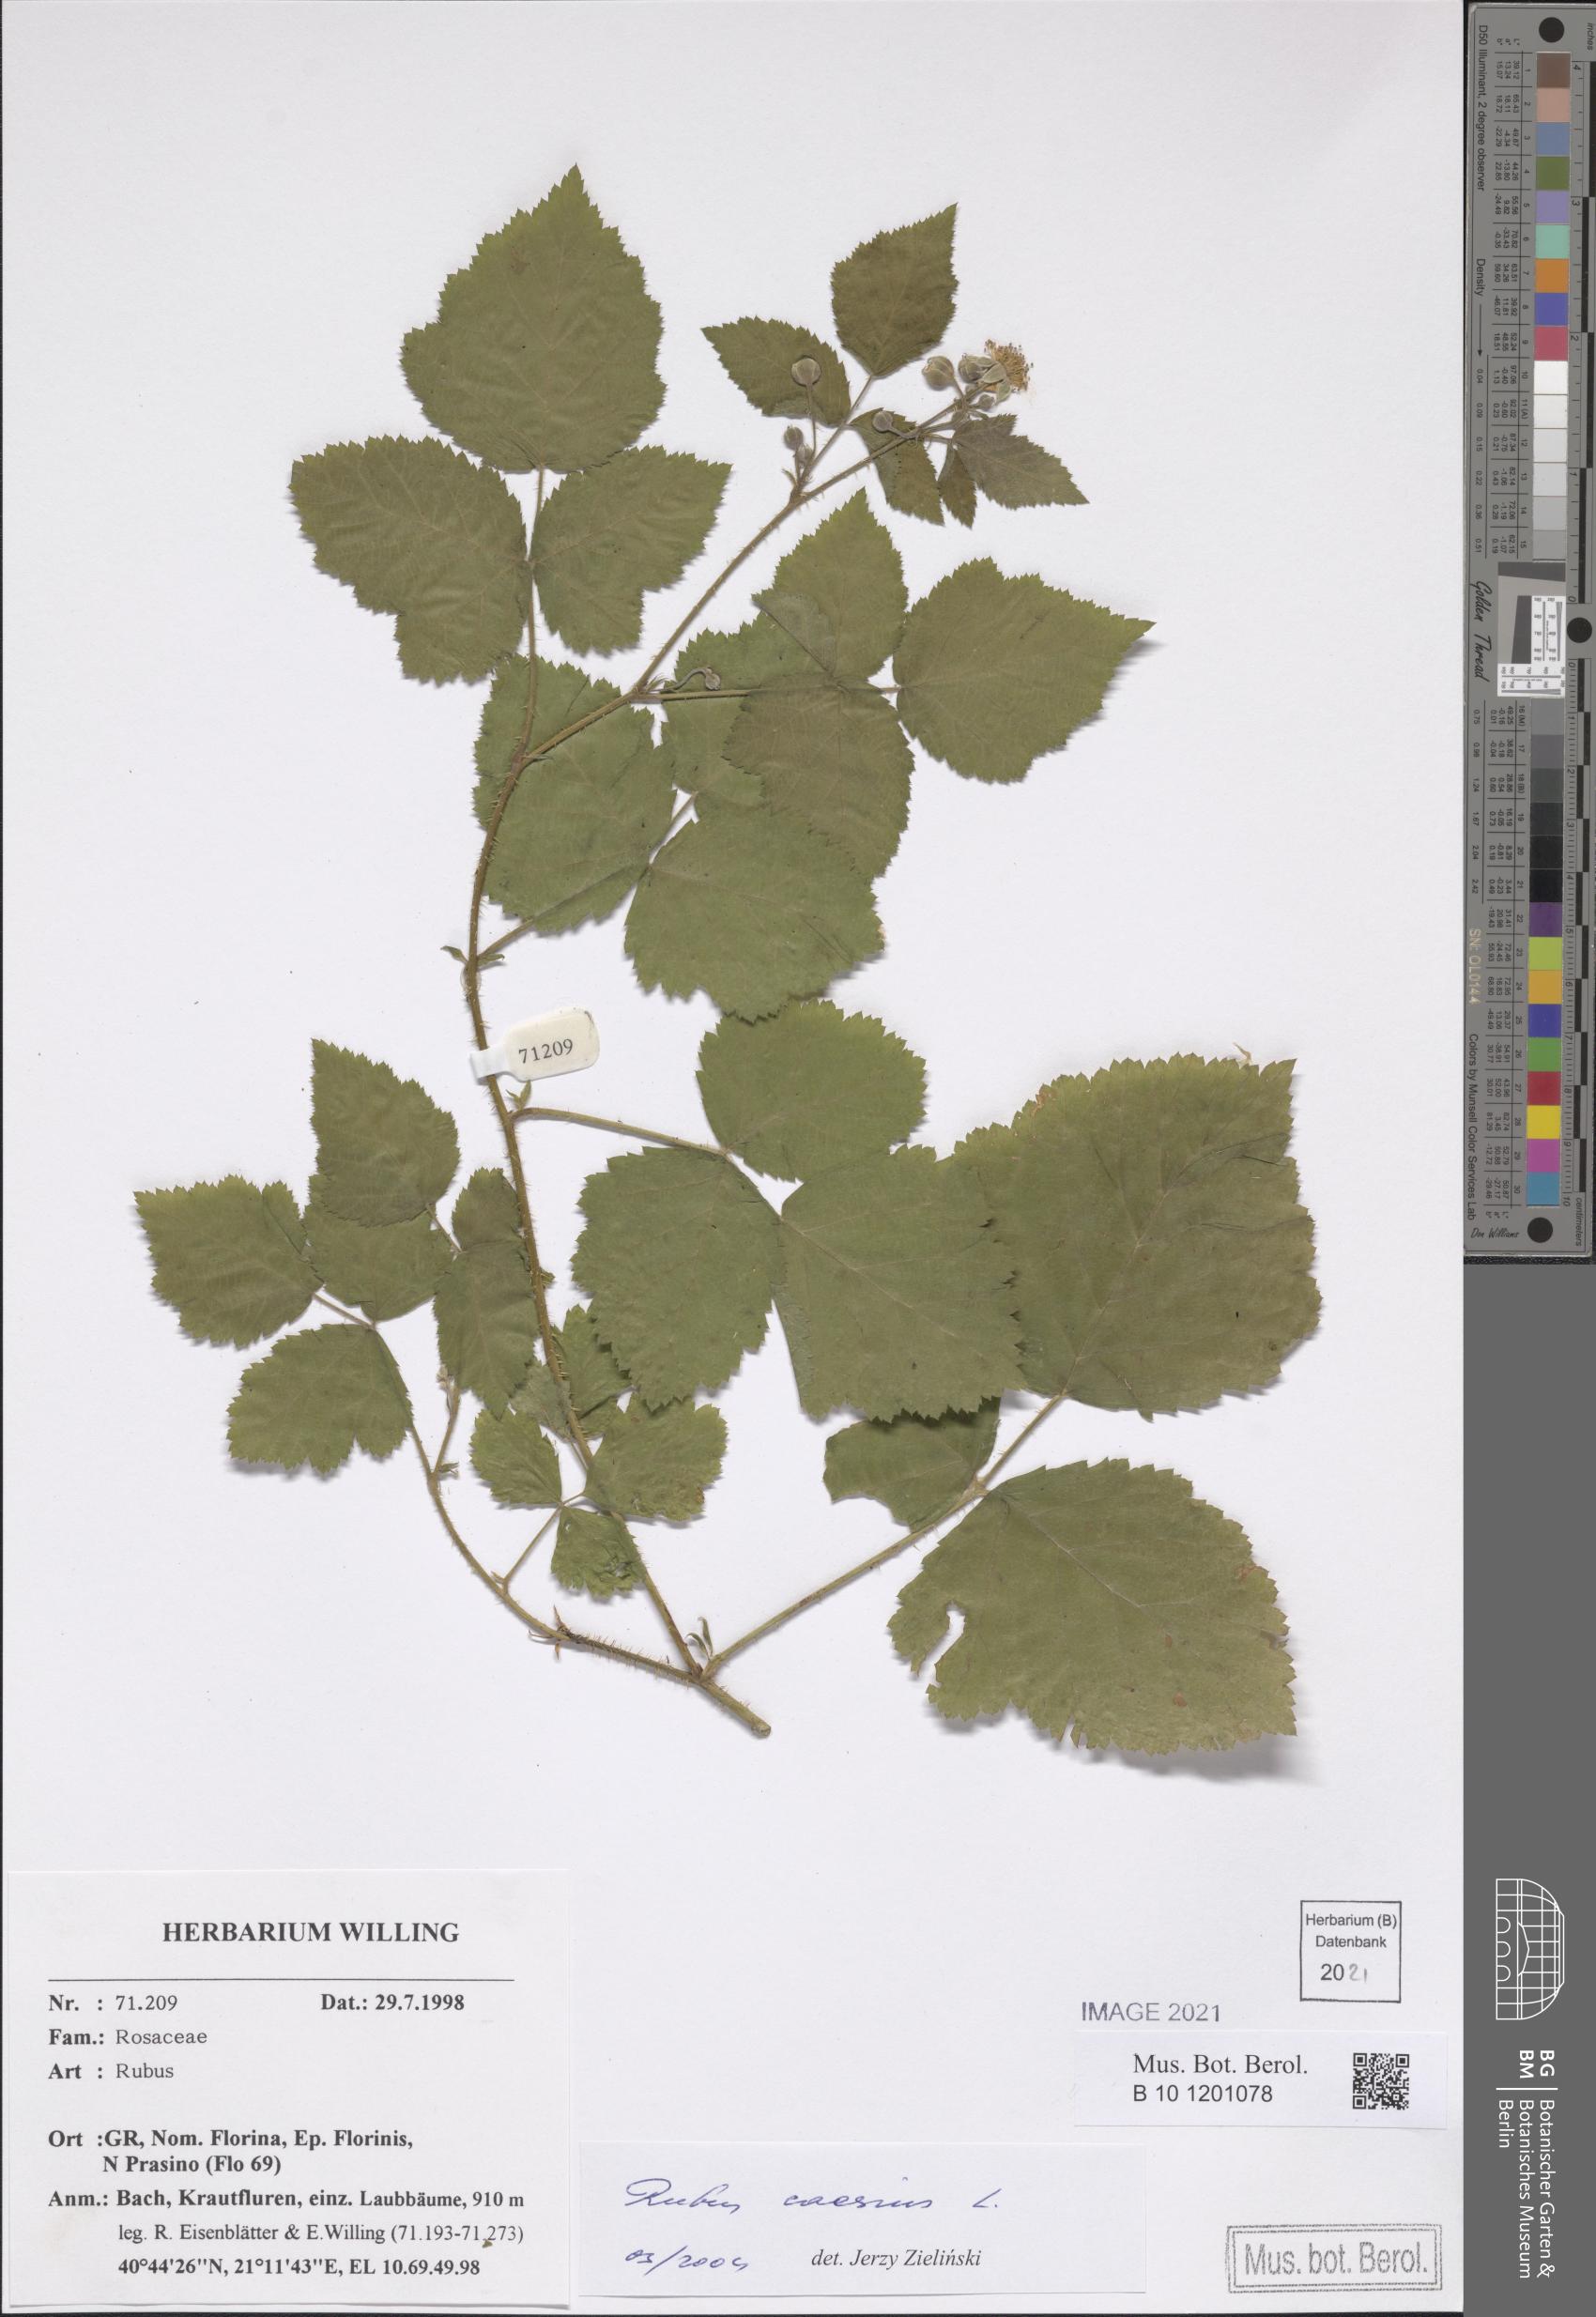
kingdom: Plantae
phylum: Tracheophyta
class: Magnoliopsida
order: Rosales
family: Rosaceae
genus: Rubus
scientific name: Rubus caesius
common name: Dewberry
